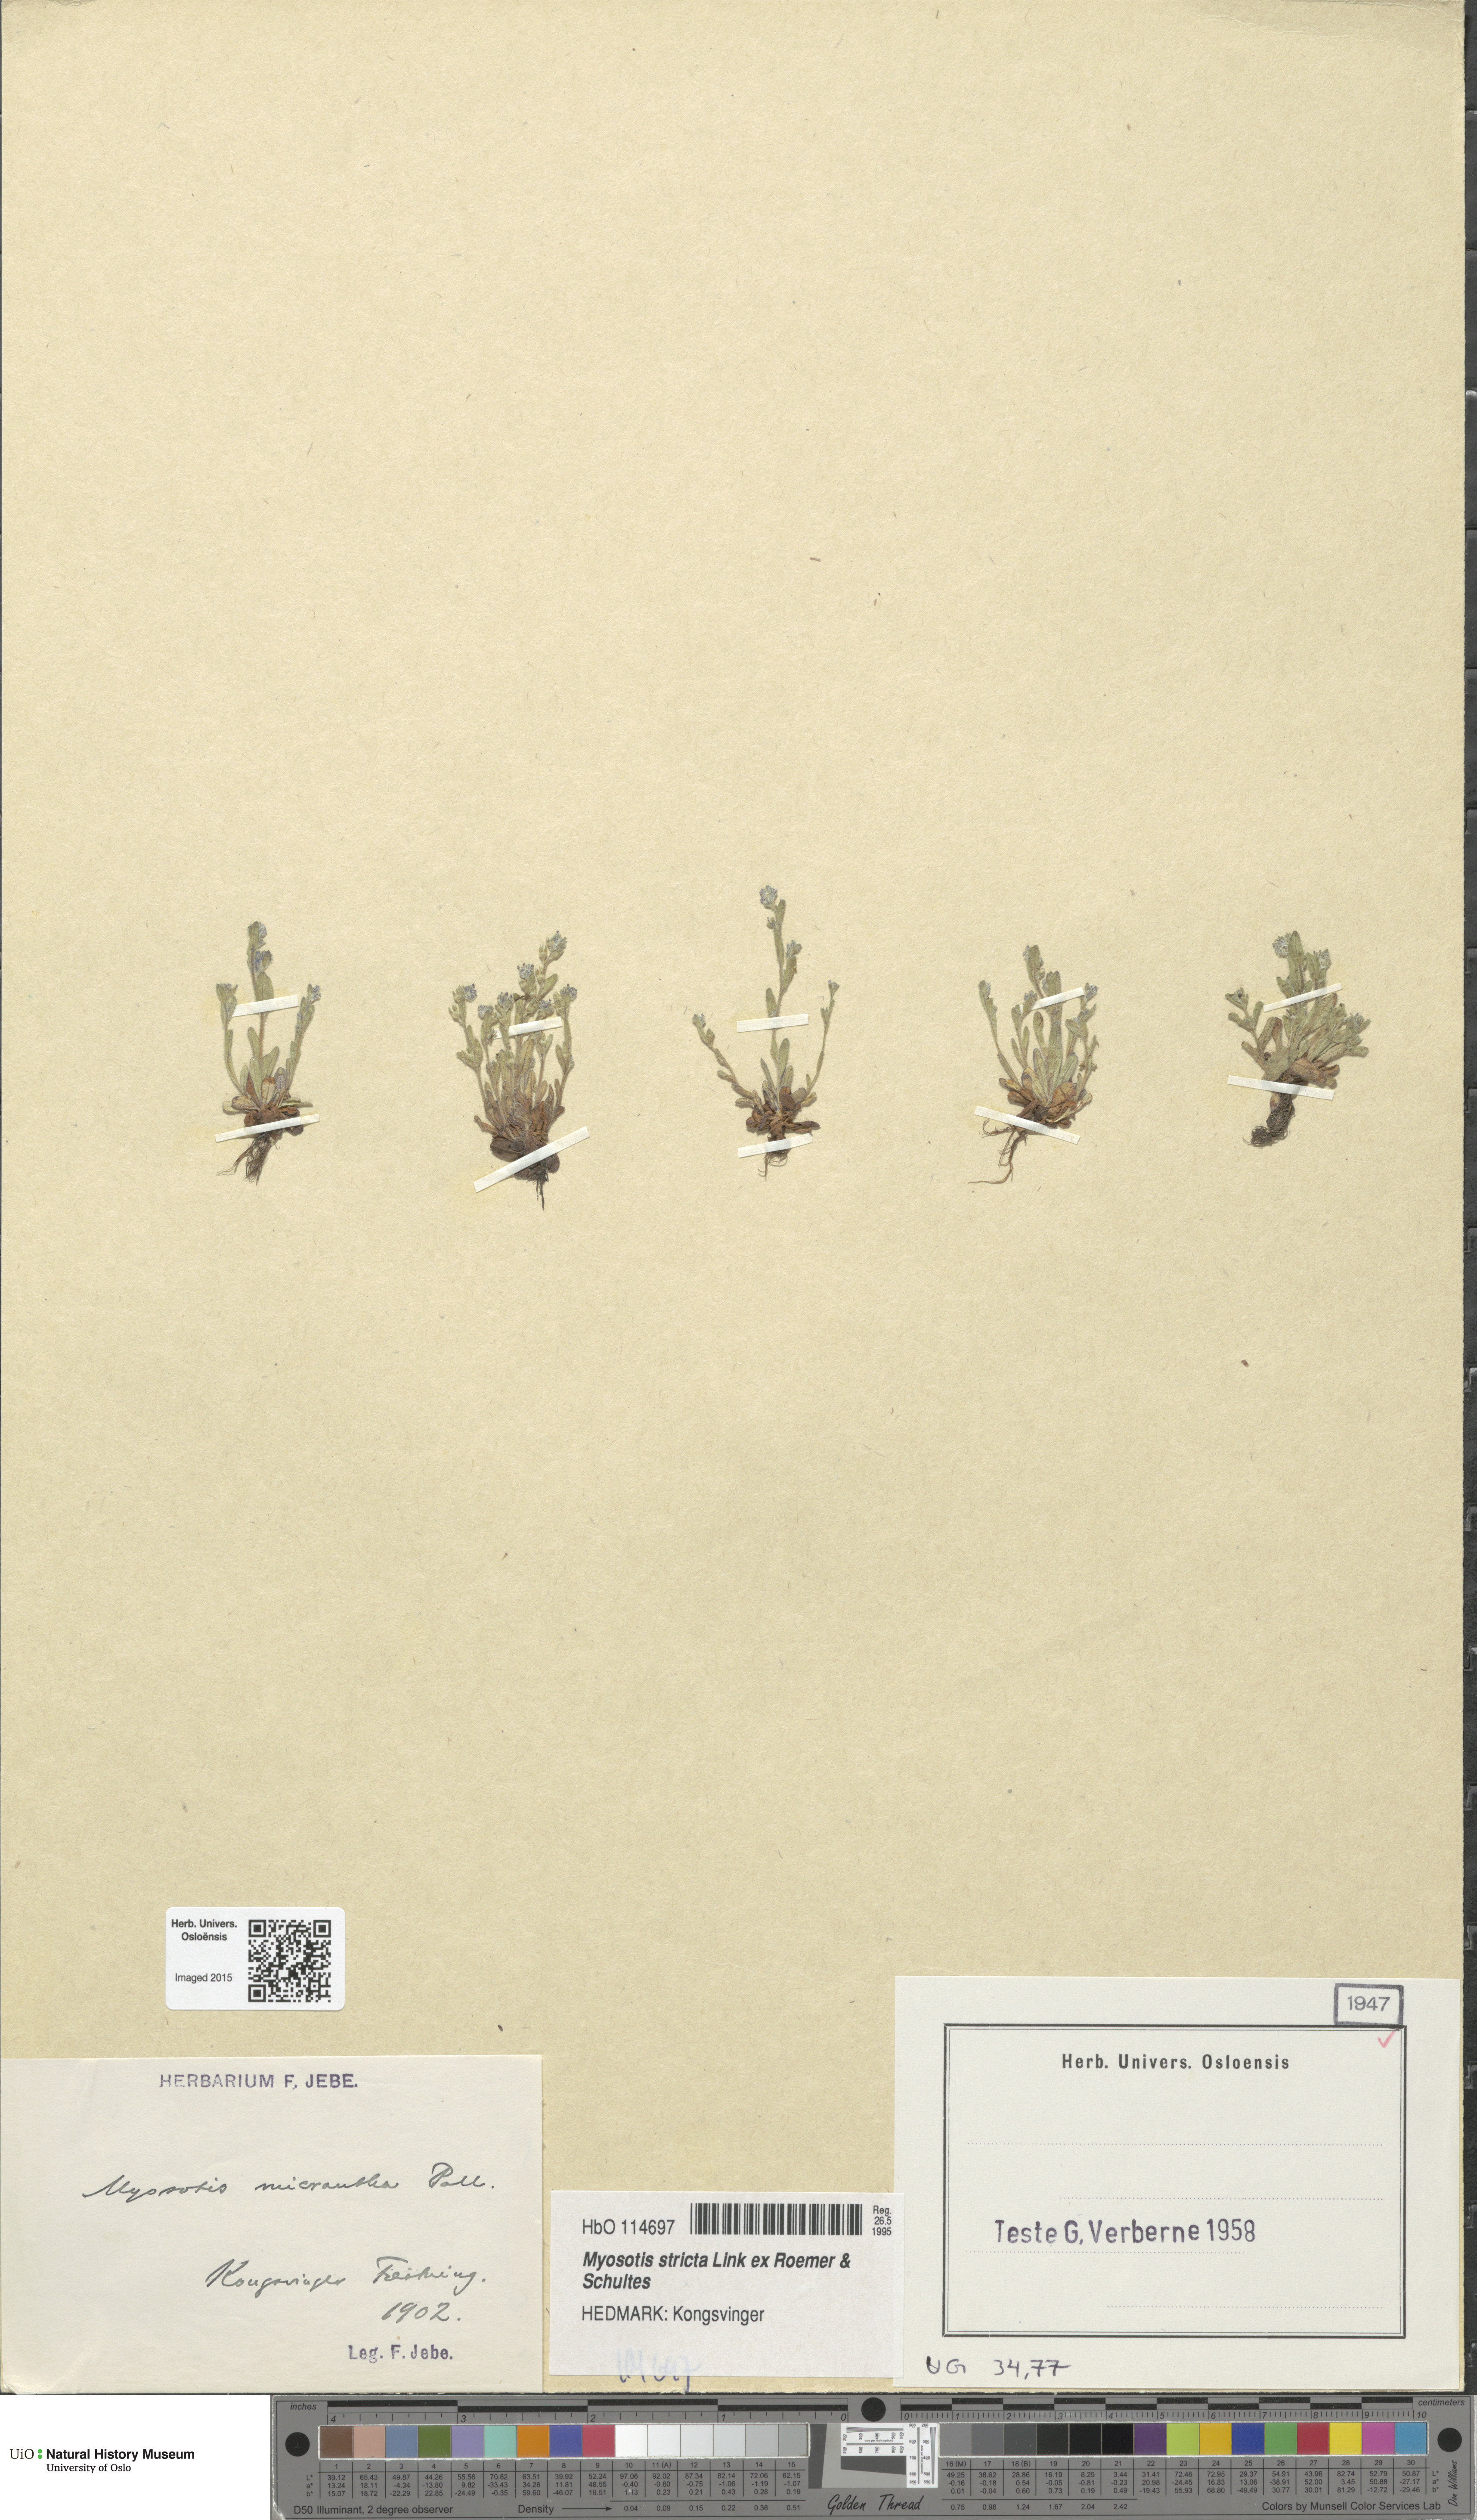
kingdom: Plantae
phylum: Tracheophyta
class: Magnoliopsida
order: Boraginales
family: Boraginaceae
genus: Myosotis
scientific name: Myosotis stricta
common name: Strict forget-me-not
